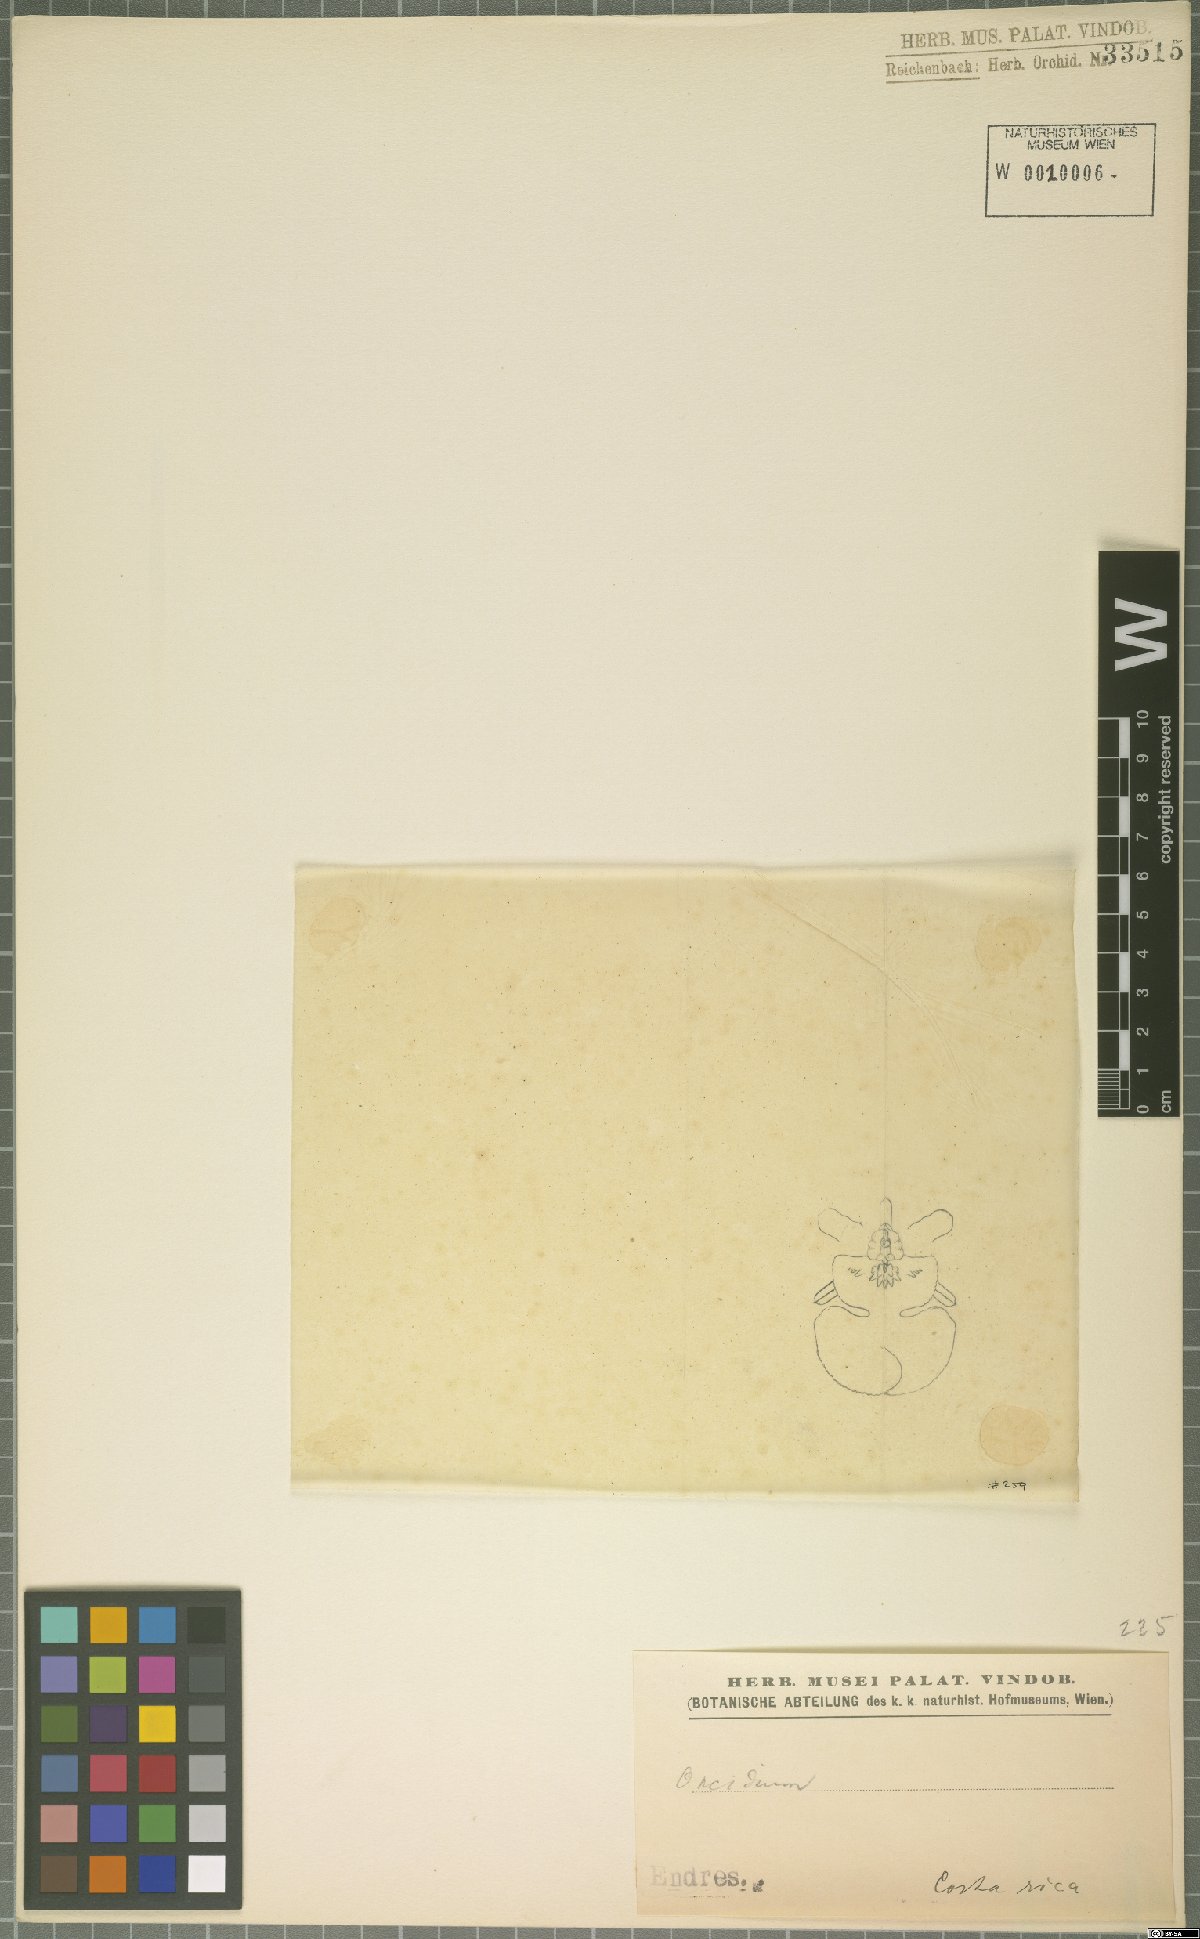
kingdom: Plantae
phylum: Tracheophyta
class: Liliopsida
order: Asparagales
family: Orchidaceae
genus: Oncidium
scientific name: Oncidium
